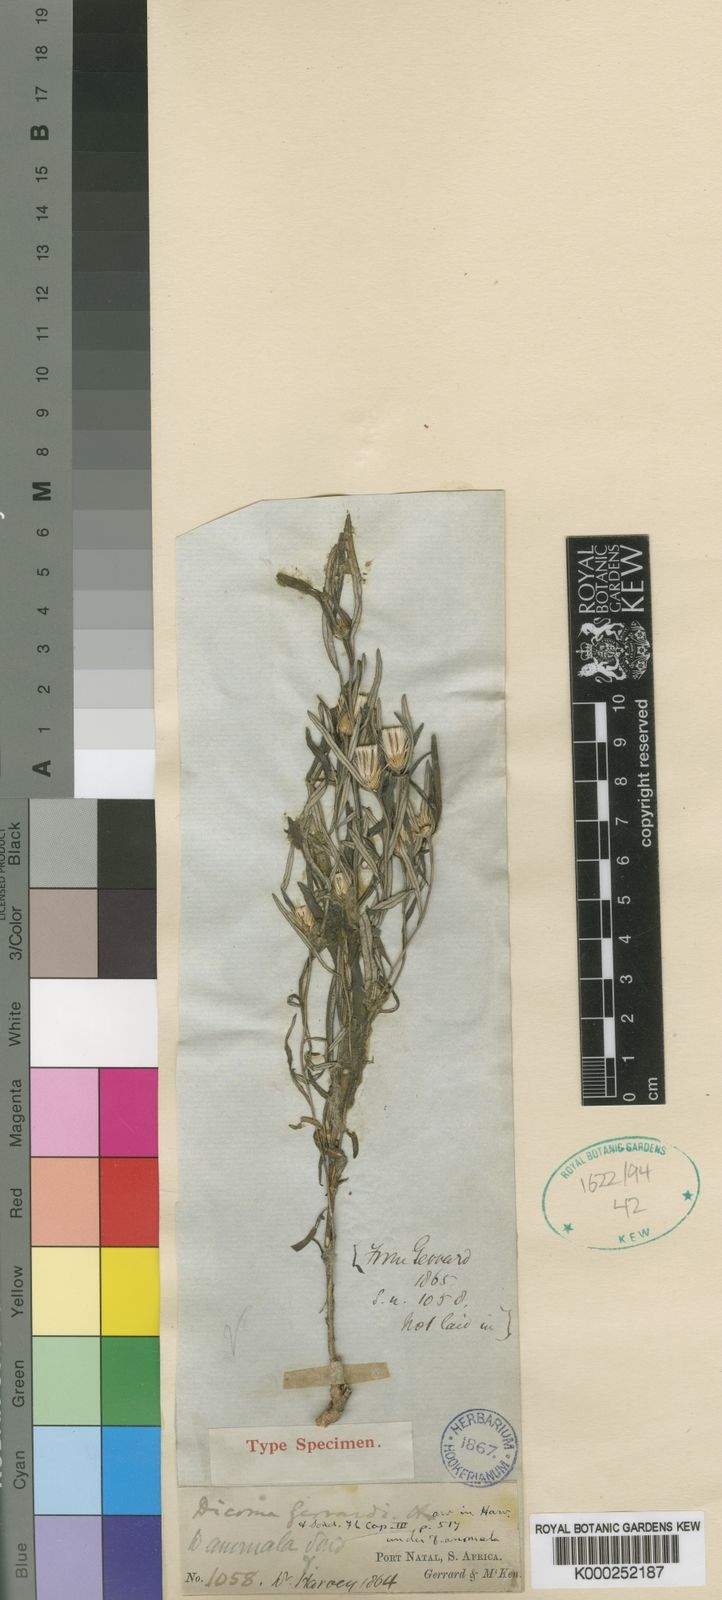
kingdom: Plantae
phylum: Tracheophyta
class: Magnoliopsida
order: Asterales
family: Asteraceae
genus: Dicoma
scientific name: Dicoma anomala
